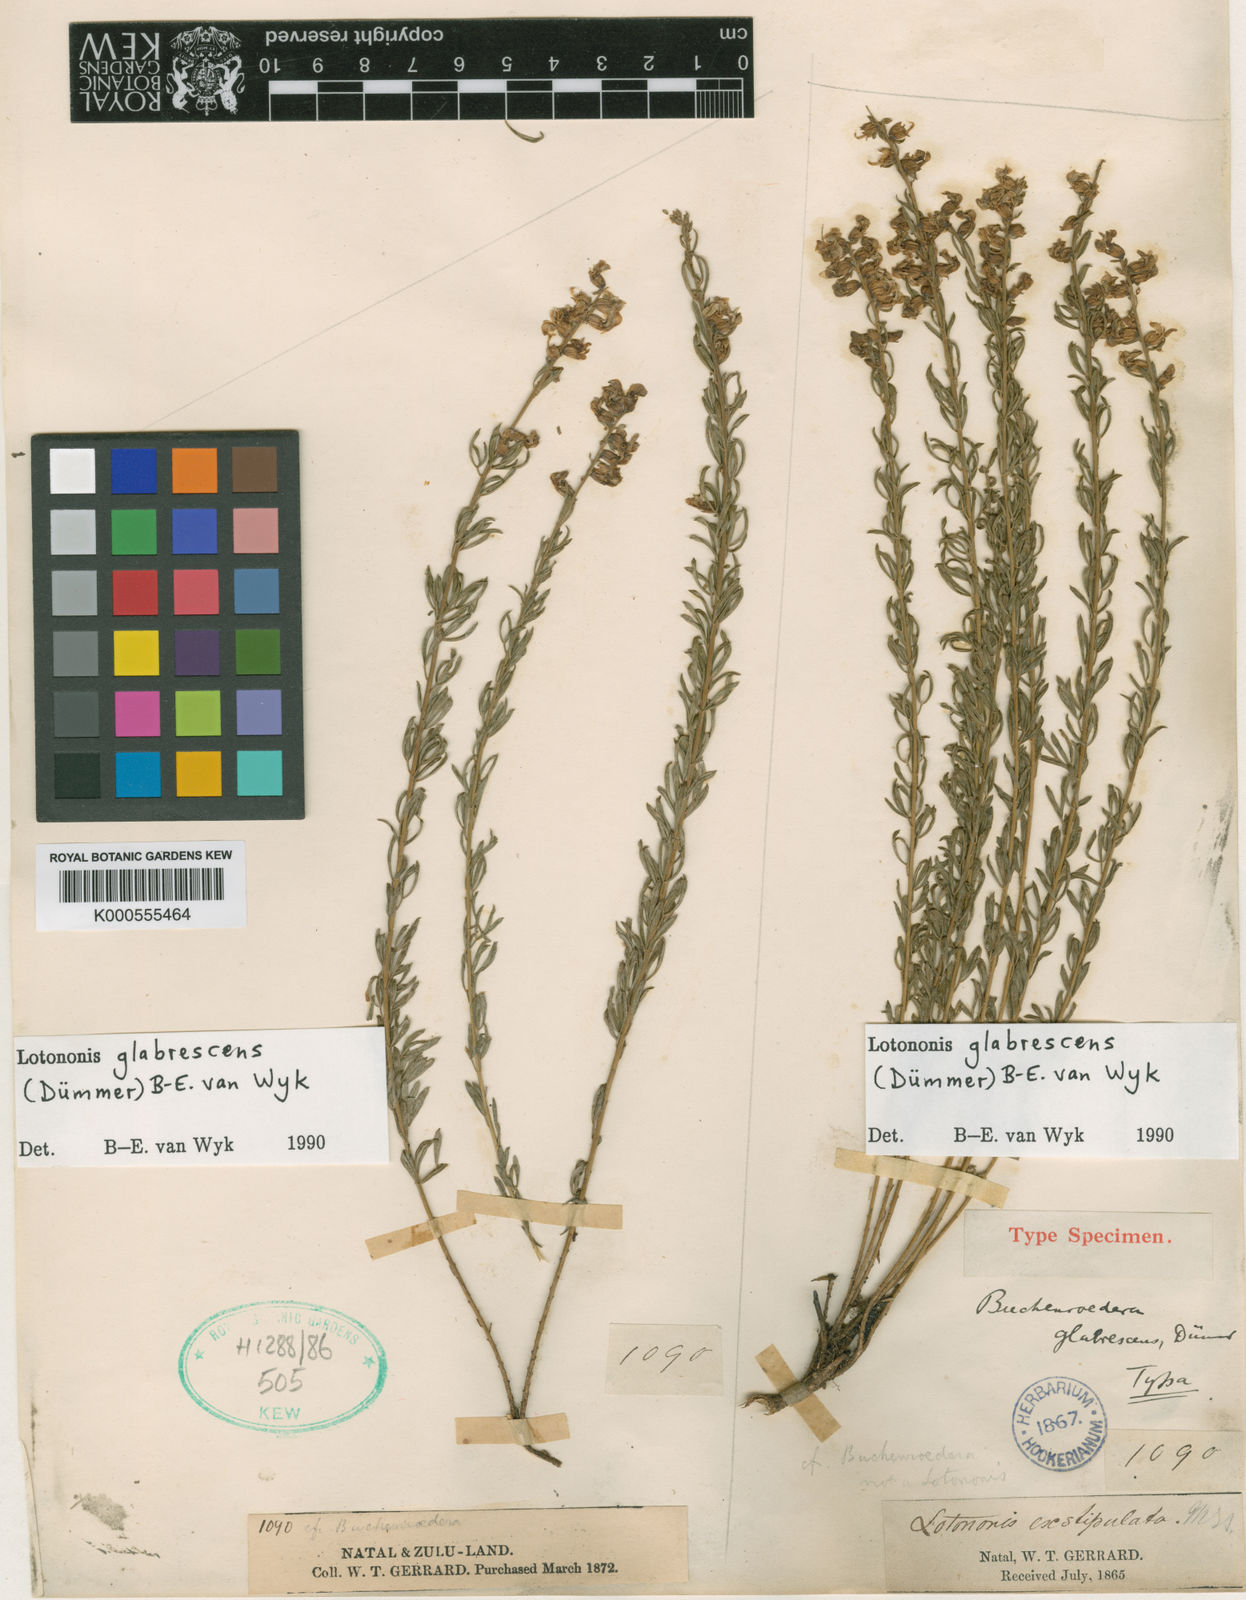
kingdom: Plantae
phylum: Tracheophyta
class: Magnoliopsida
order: Fabales
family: Fabaceae
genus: Lotononis
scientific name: Lotononis glabrescens
